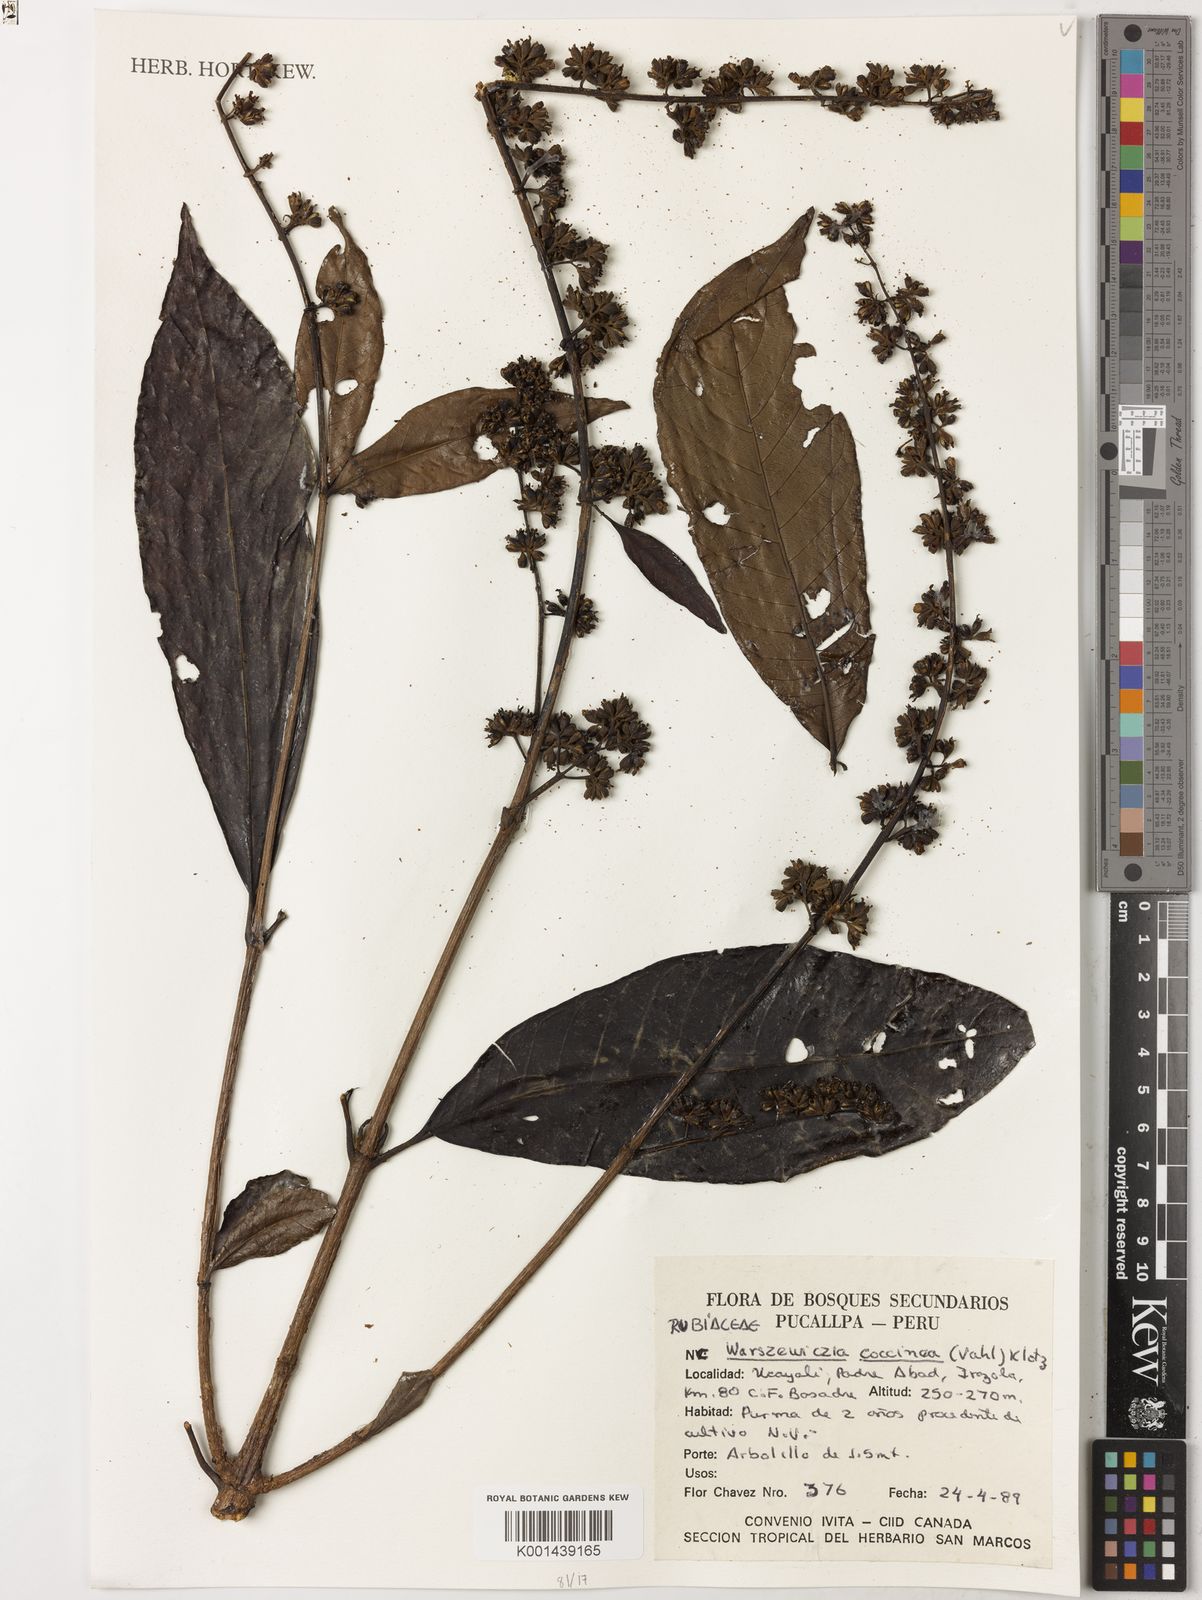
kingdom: Plantae
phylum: Tracheophyta
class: Magnoliopsida
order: Gentianales
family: Rubiaceae
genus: Warszewiczia
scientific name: Warszewiczia coccinea
